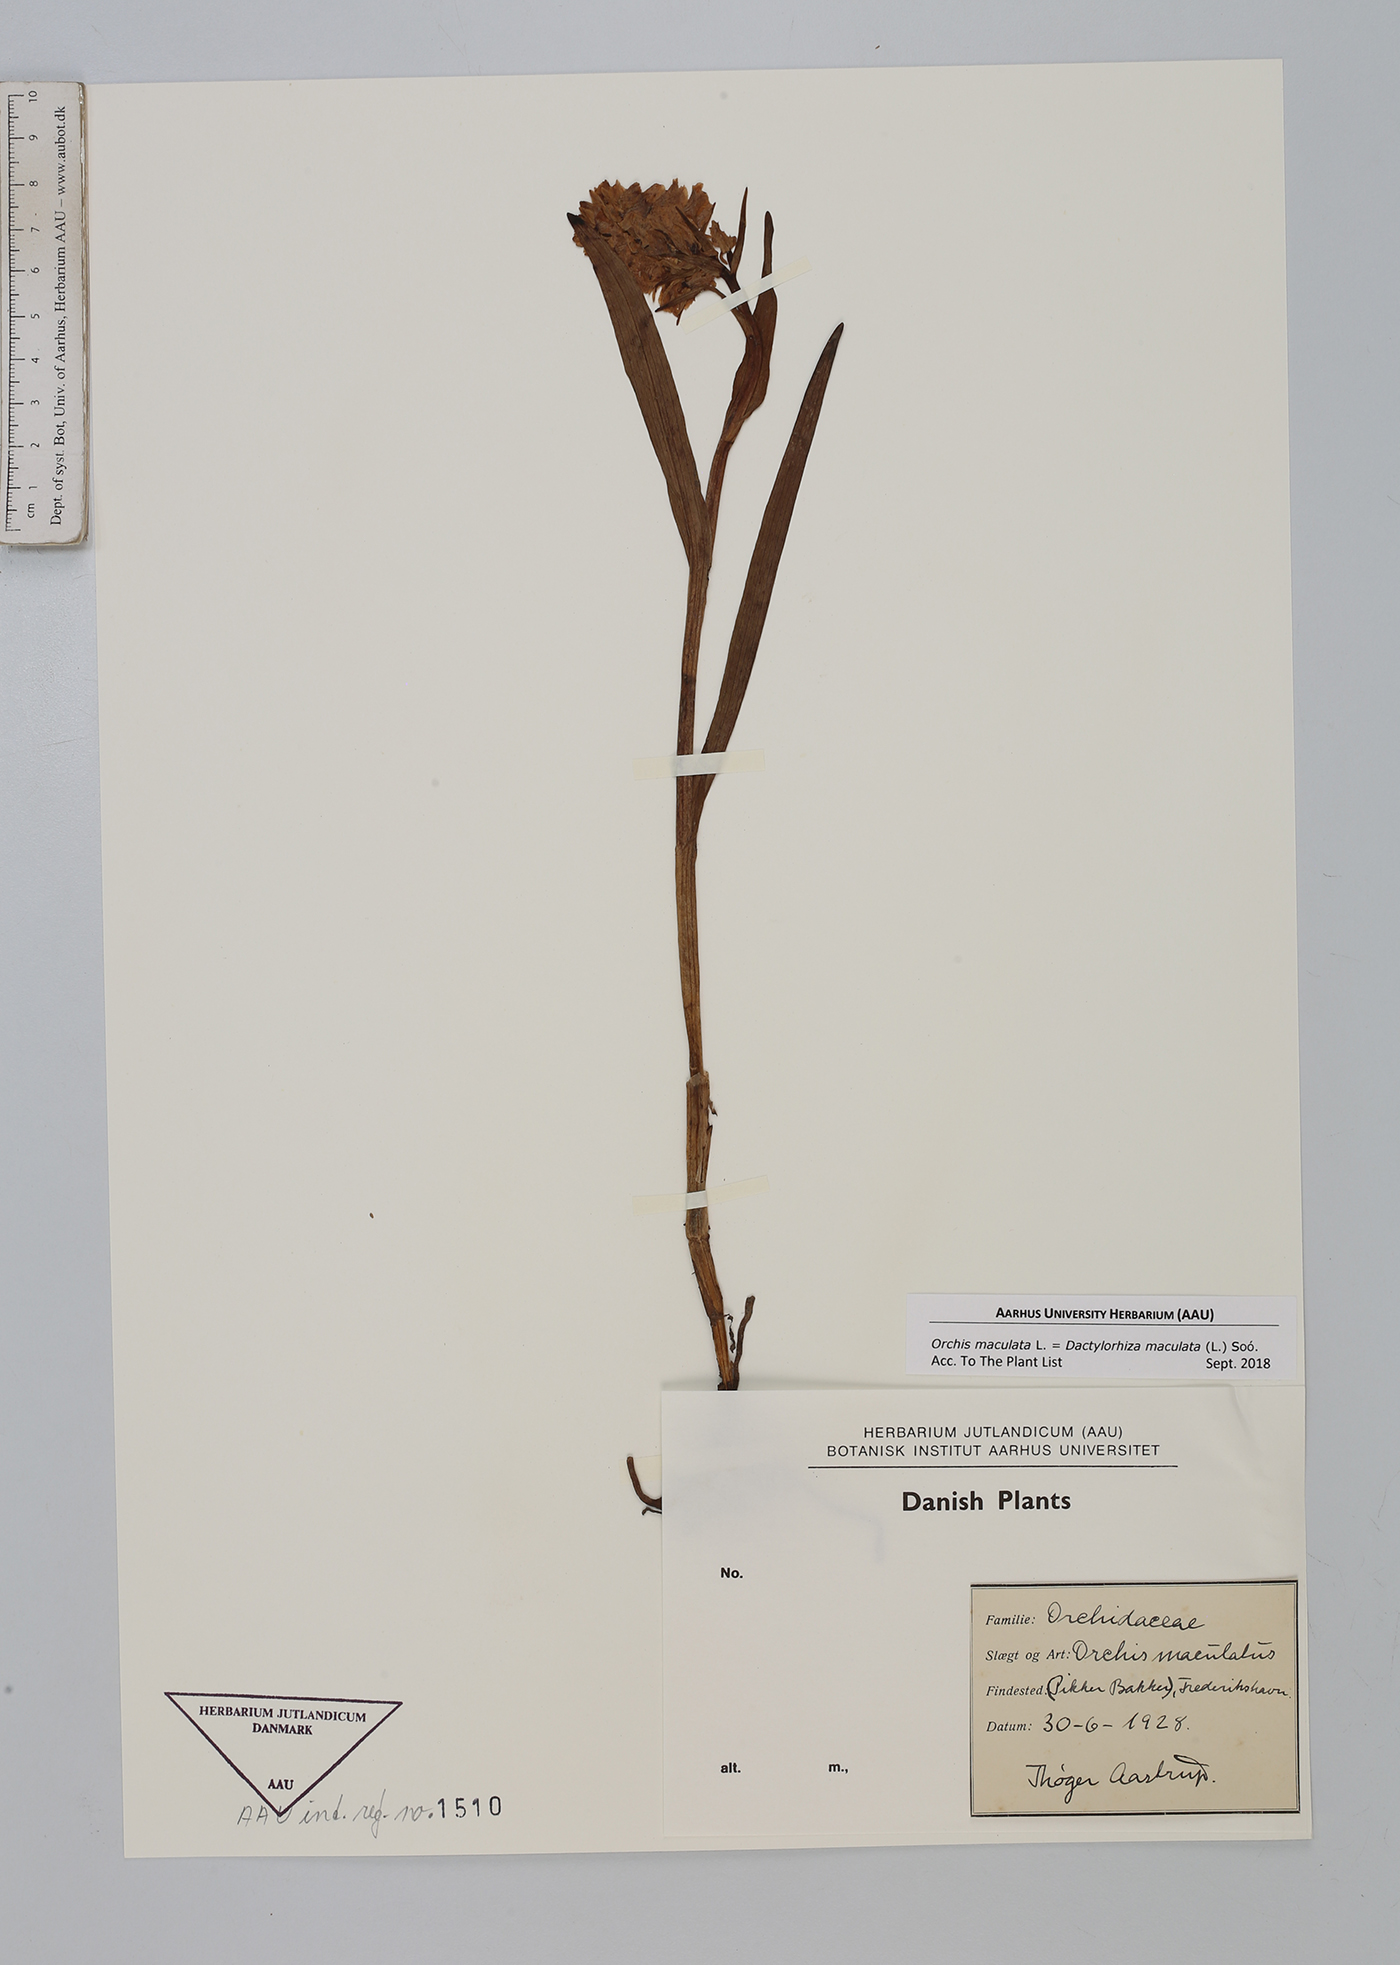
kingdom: Plantae
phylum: Tracheophyta
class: Liliopsida
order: Asparagales
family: Orchidaceae
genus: Dactylorhiza
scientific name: Dactylorhiza maculata
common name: Heath spotted-orchid
